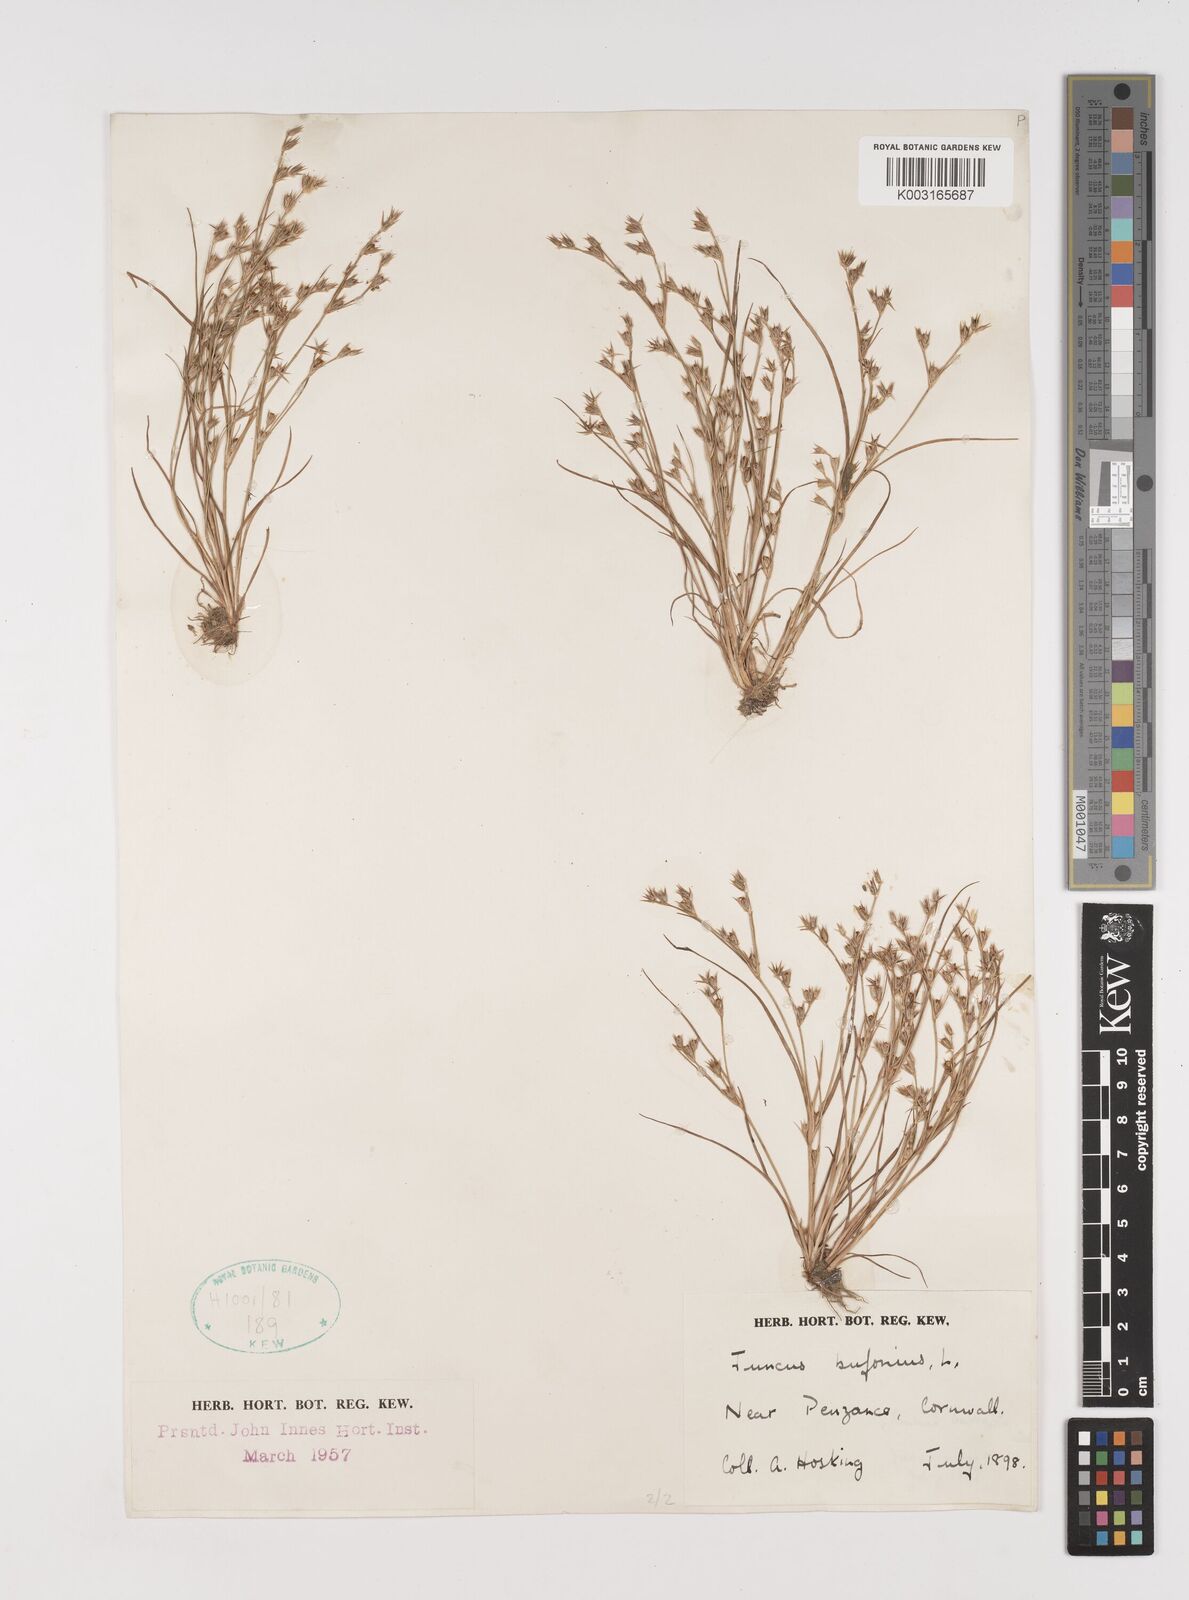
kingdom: Plantae
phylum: Tracheophyta
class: Liliopsida
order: Poales
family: Juncaceae
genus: Juncus
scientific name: Juncus bufonius
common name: Toad rush
